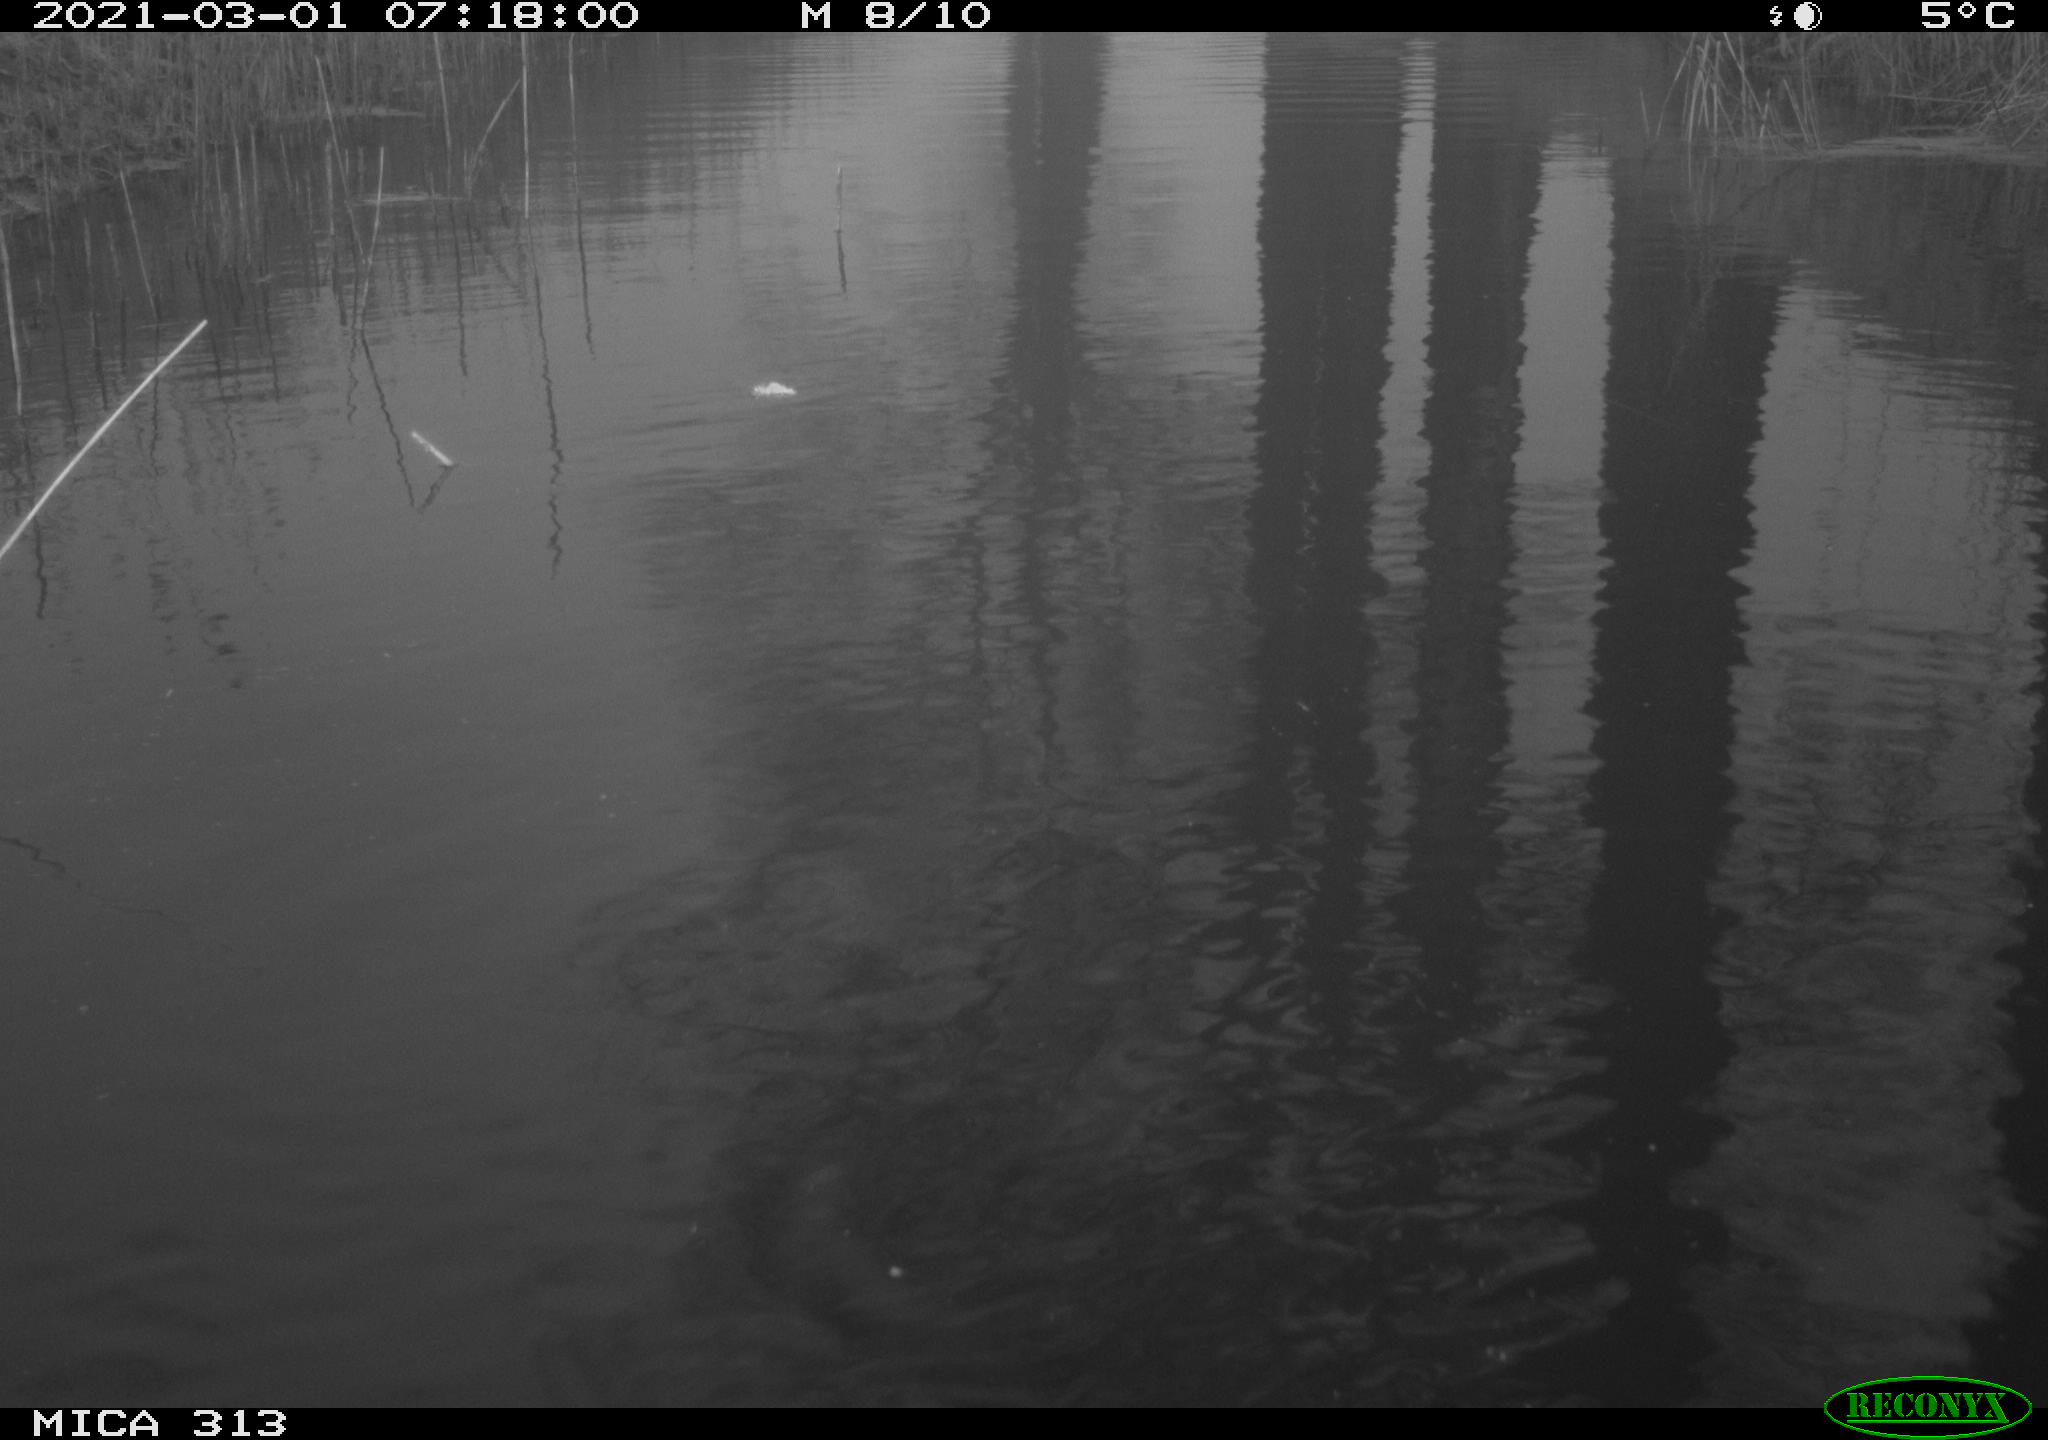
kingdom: Animalia
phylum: Chordata
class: Aves
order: Gruiformes
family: Rallidae
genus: Fulica
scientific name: Fulica atra
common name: Eurasian coot
